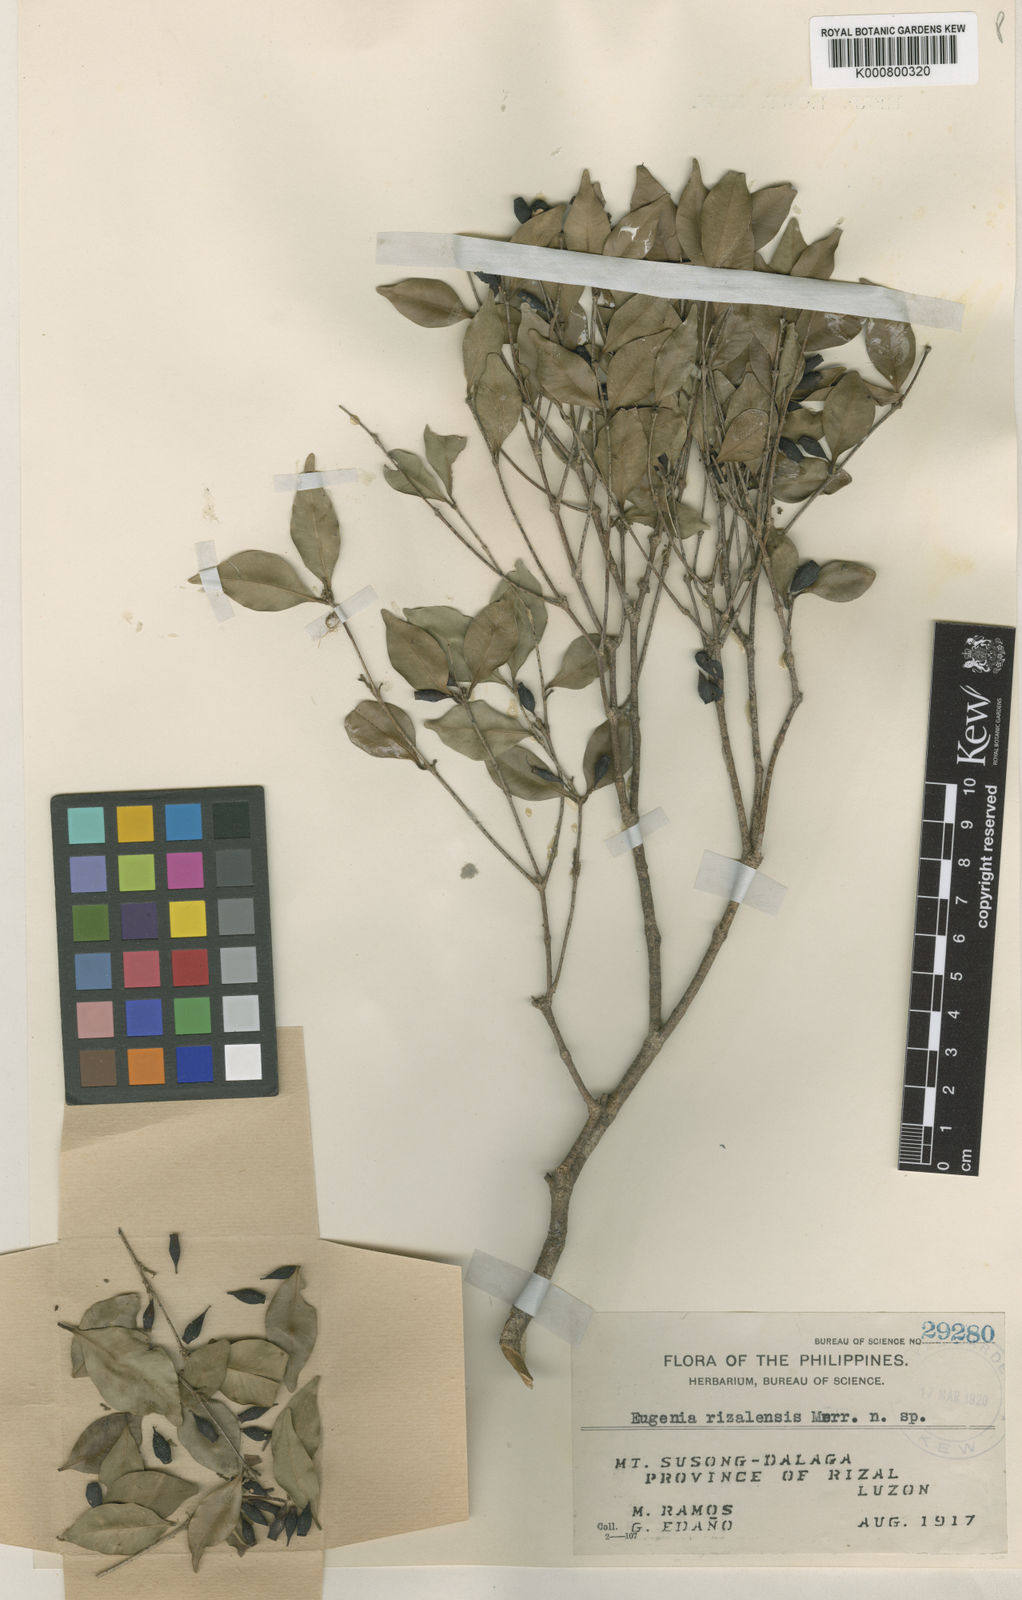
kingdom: Plantae
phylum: Tracheophyta
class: Magnoliopsida
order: Myrtales
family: Myrtaceae
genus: Syzygium
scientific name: Syzygium rizalense
